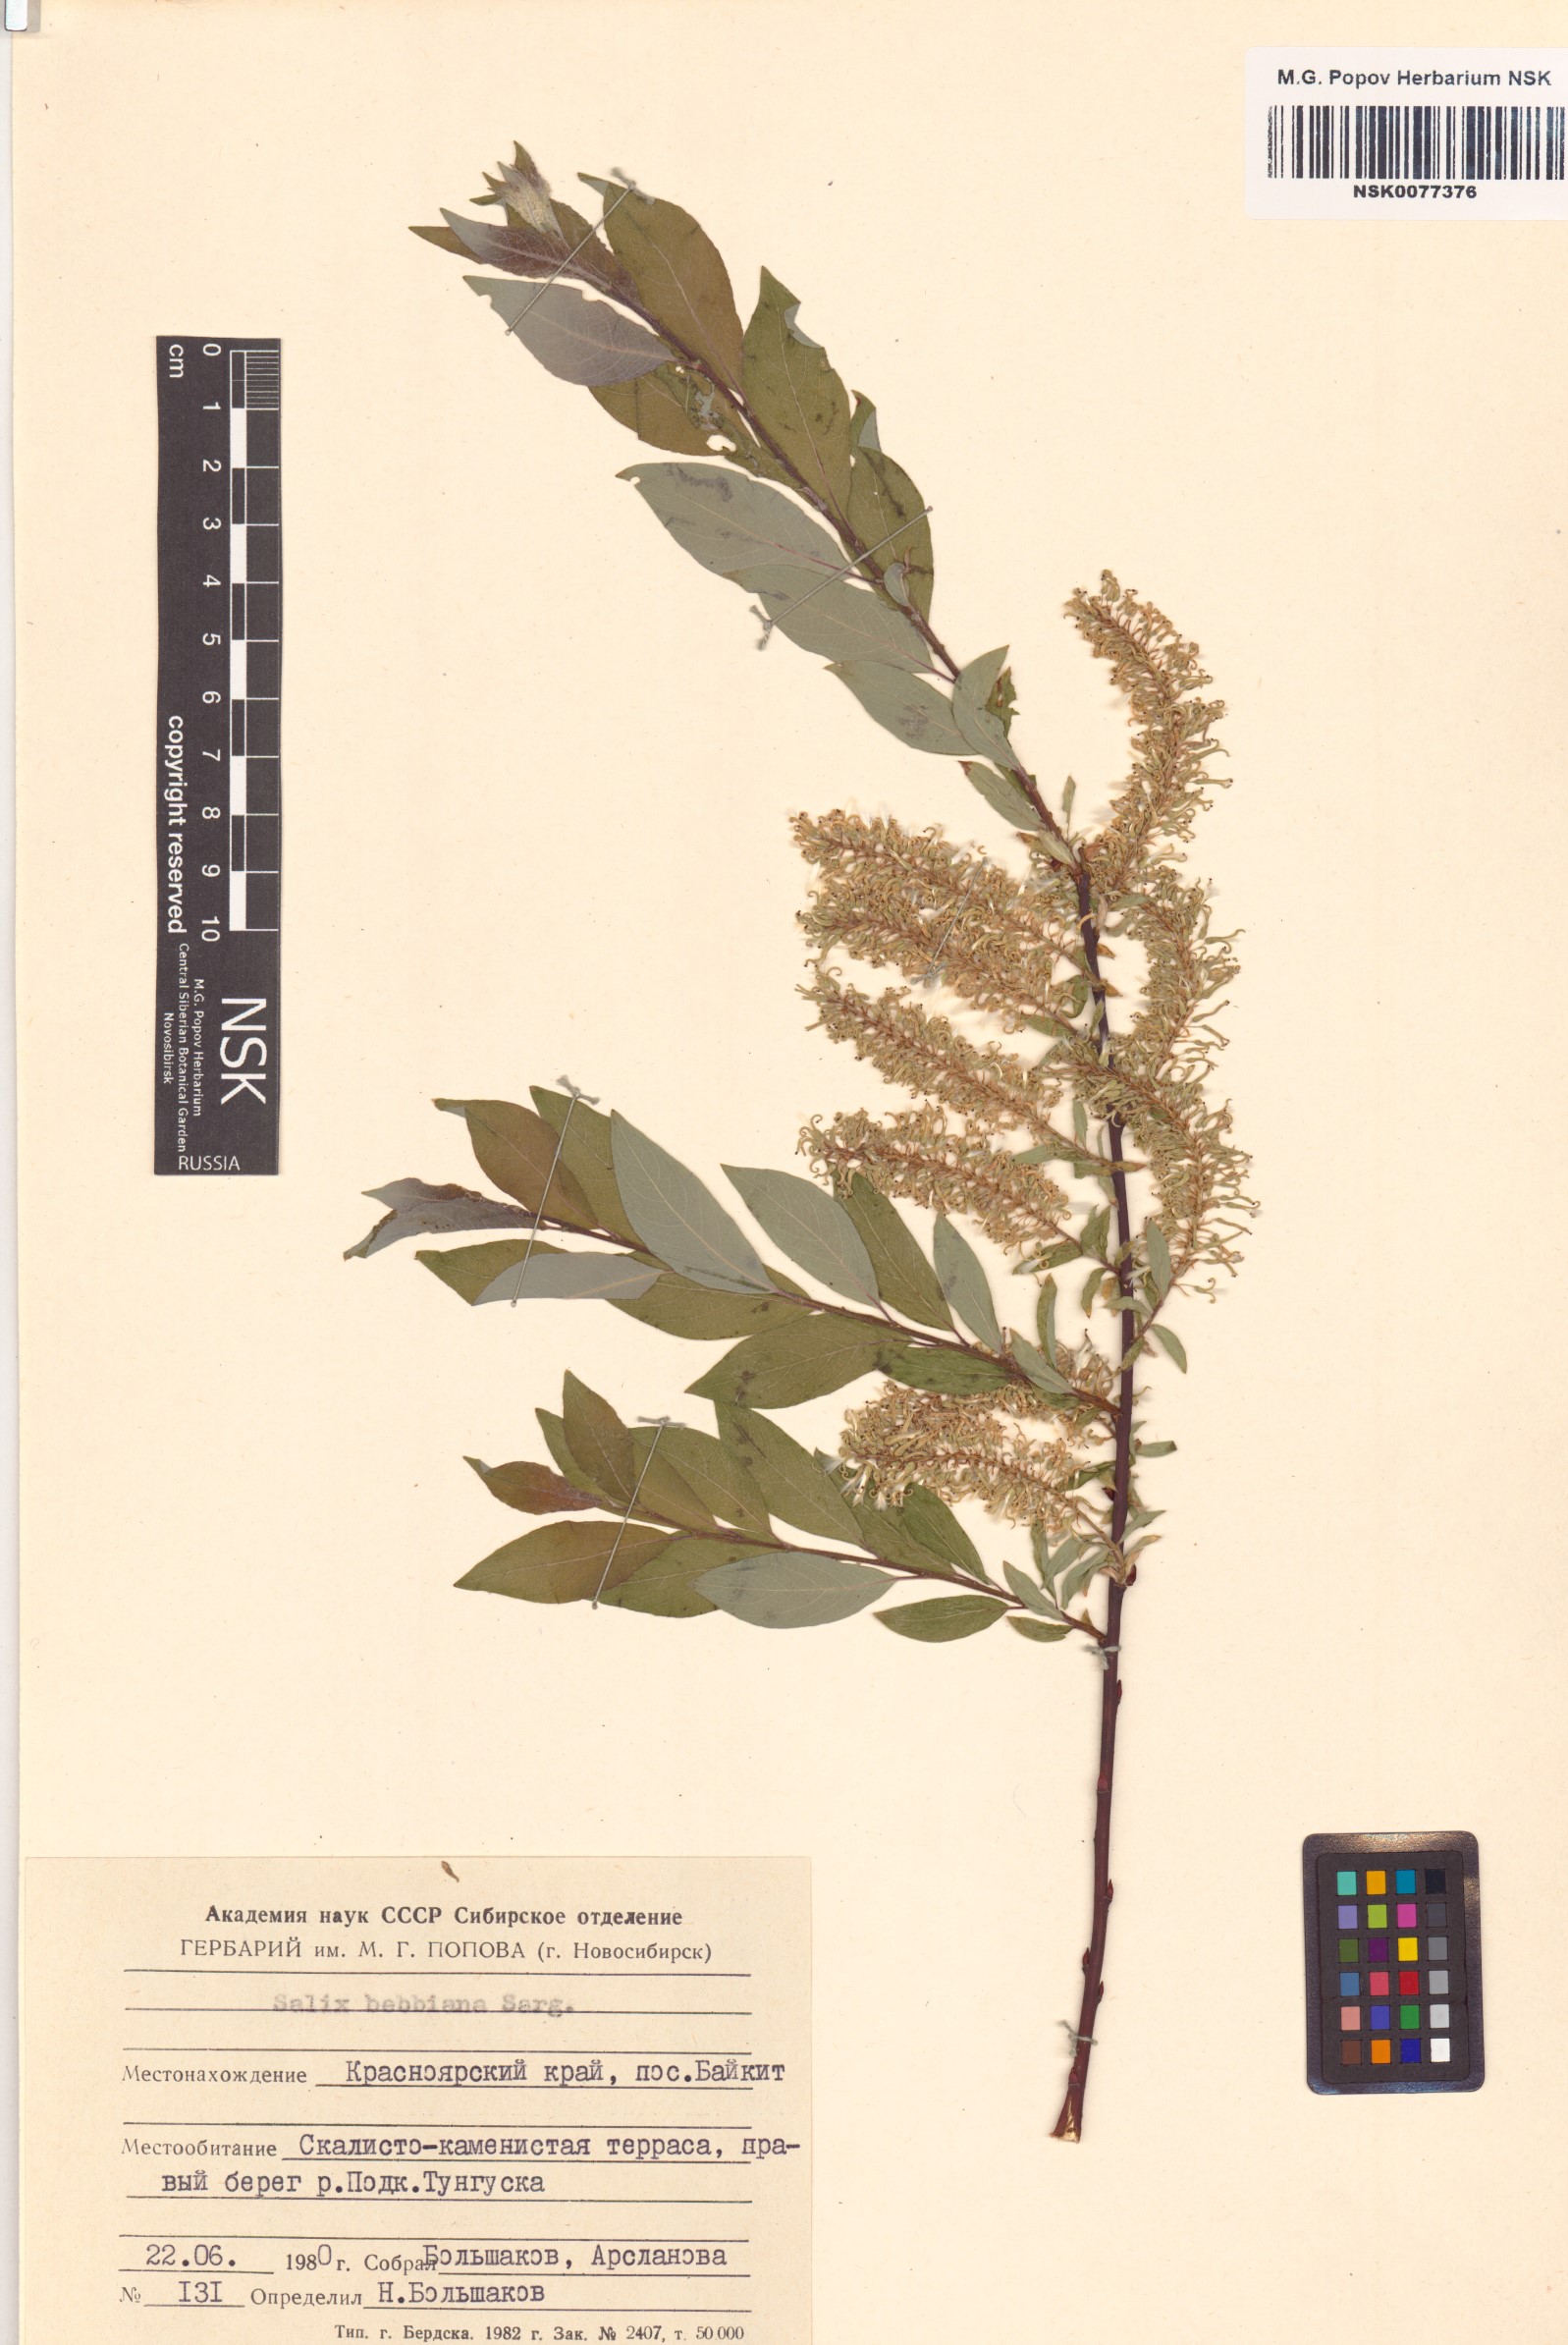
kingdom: Plantae
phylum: Tracheophyta
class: Magnoliopsida
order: Malpighiales
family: Salicaceae
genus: Salix
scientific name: Salix bebbiana
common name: Bebb's willow
